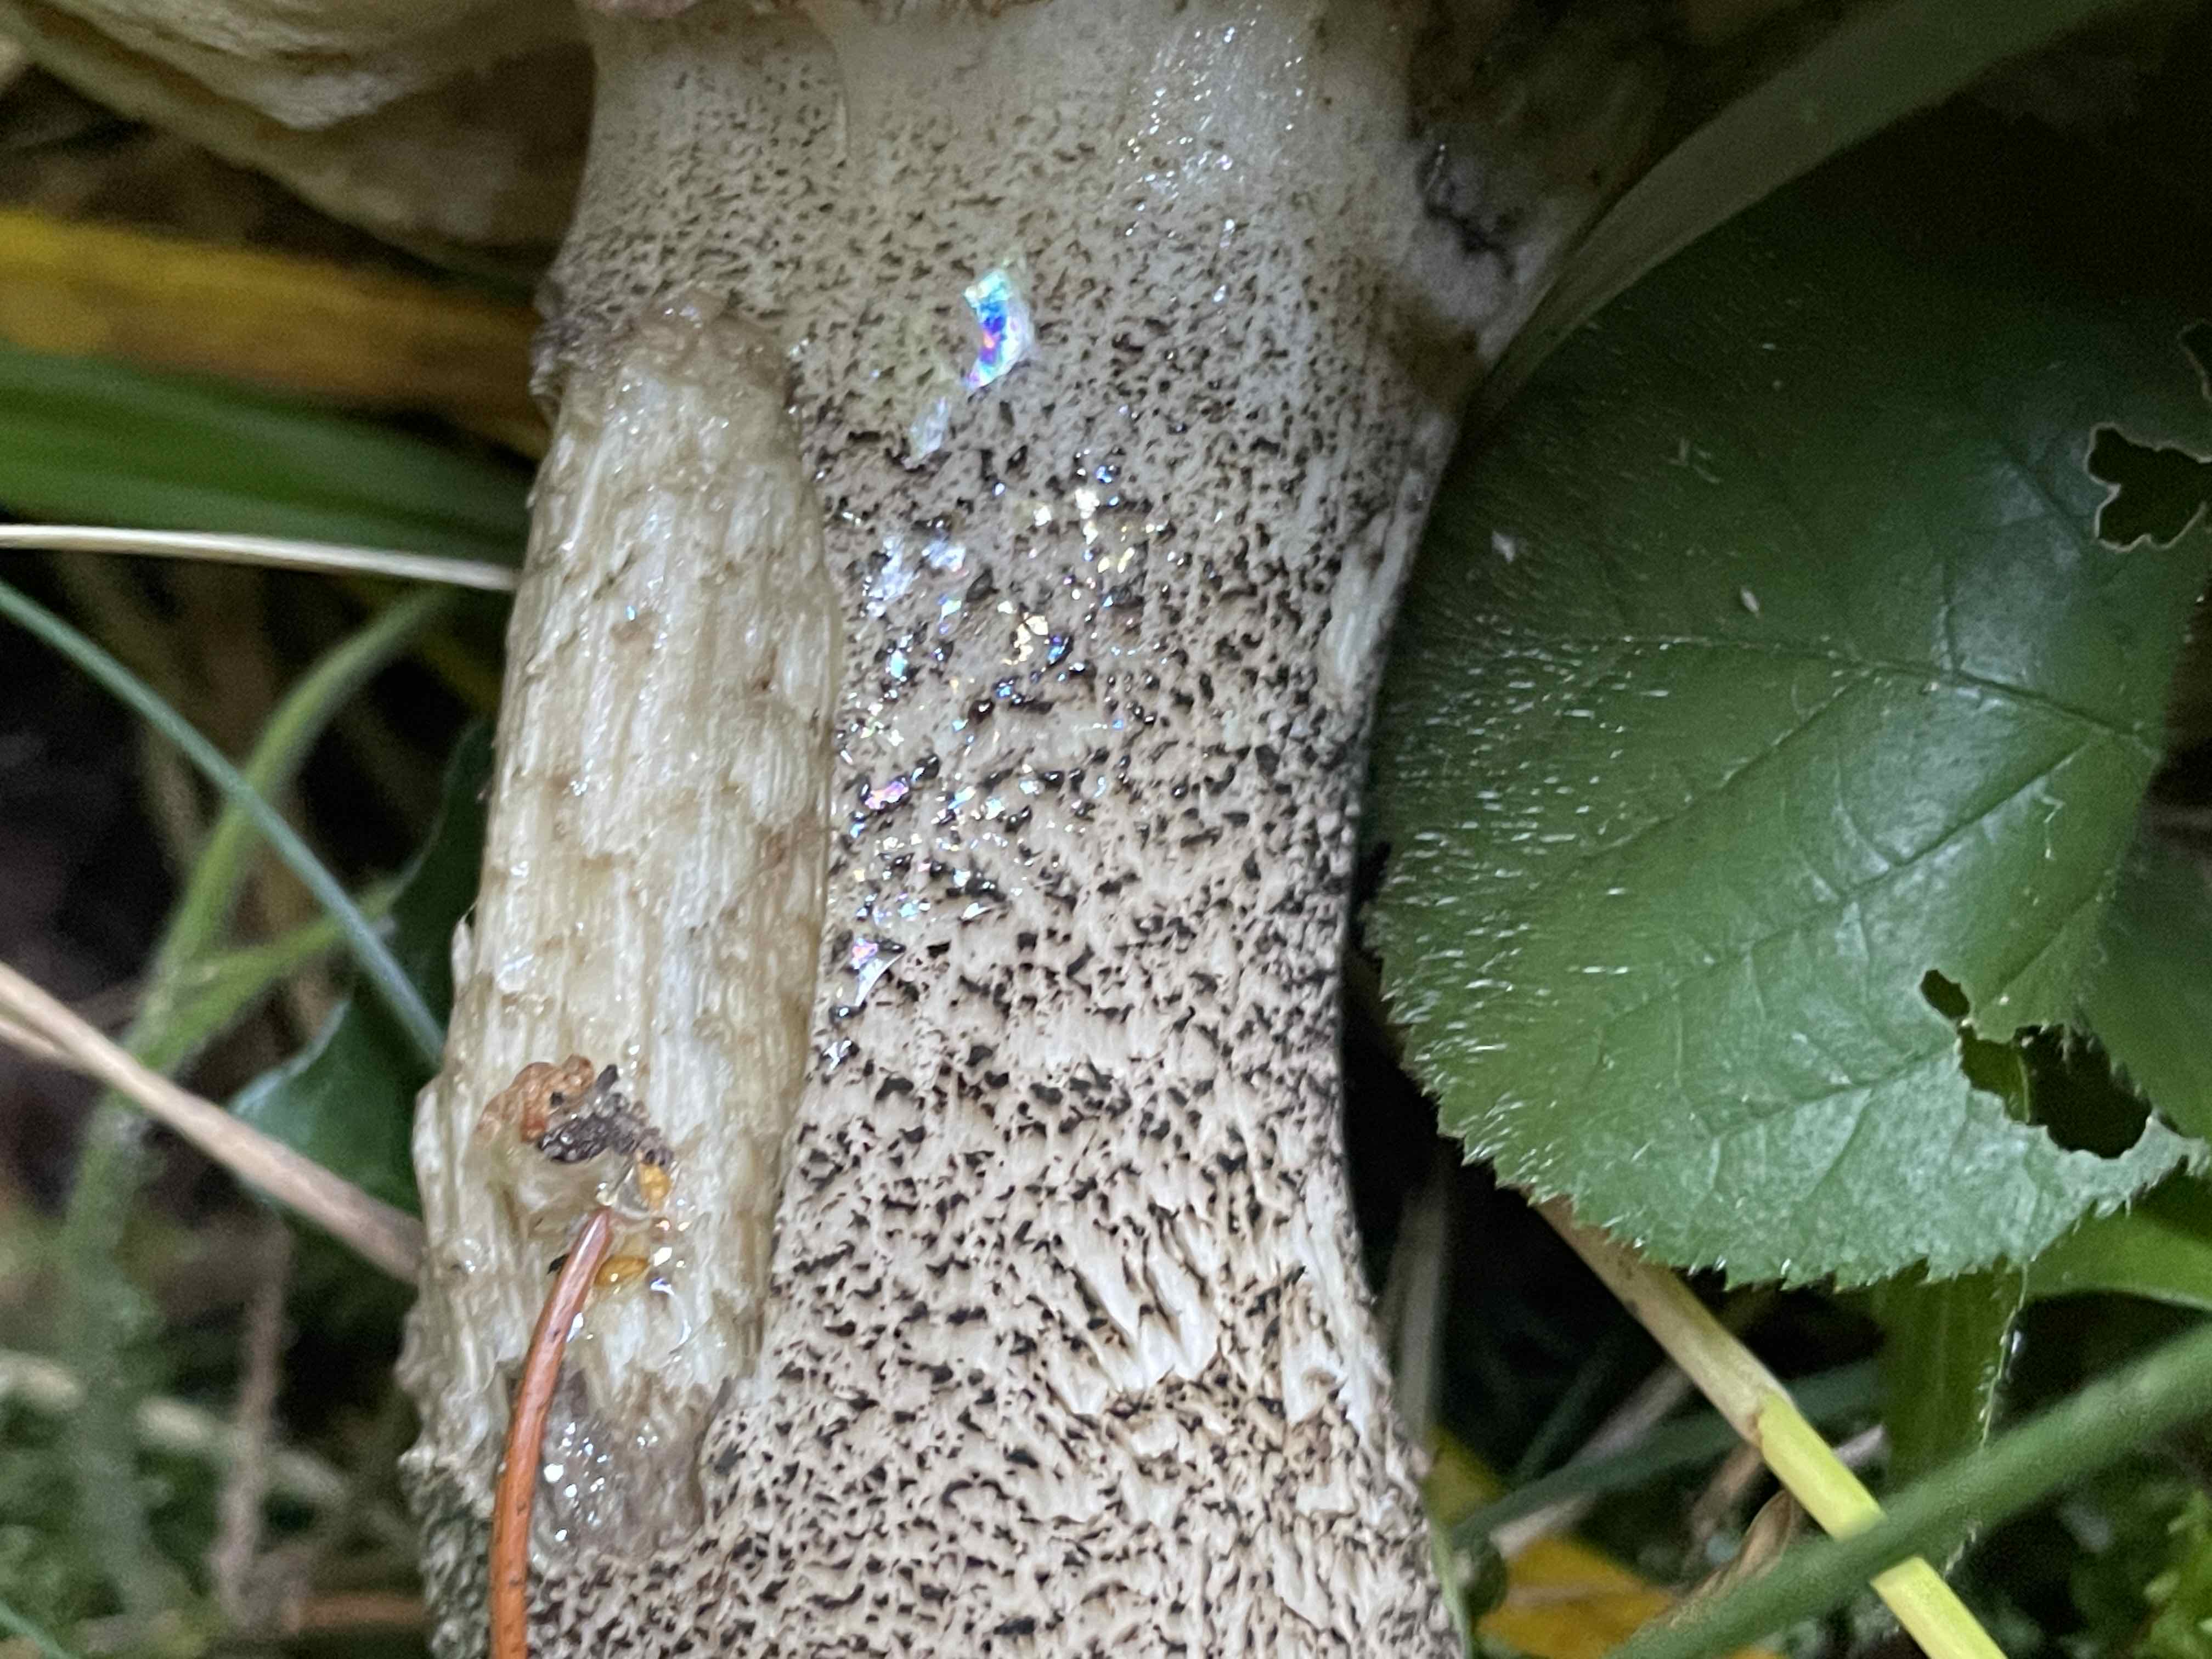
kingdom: Fungi
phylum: Basidiomycota
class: Agaricomycetes
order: Boletales
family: Boletaceae
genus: Leccinum
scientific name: Leccinum versipelle
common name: orange skælrørhat
